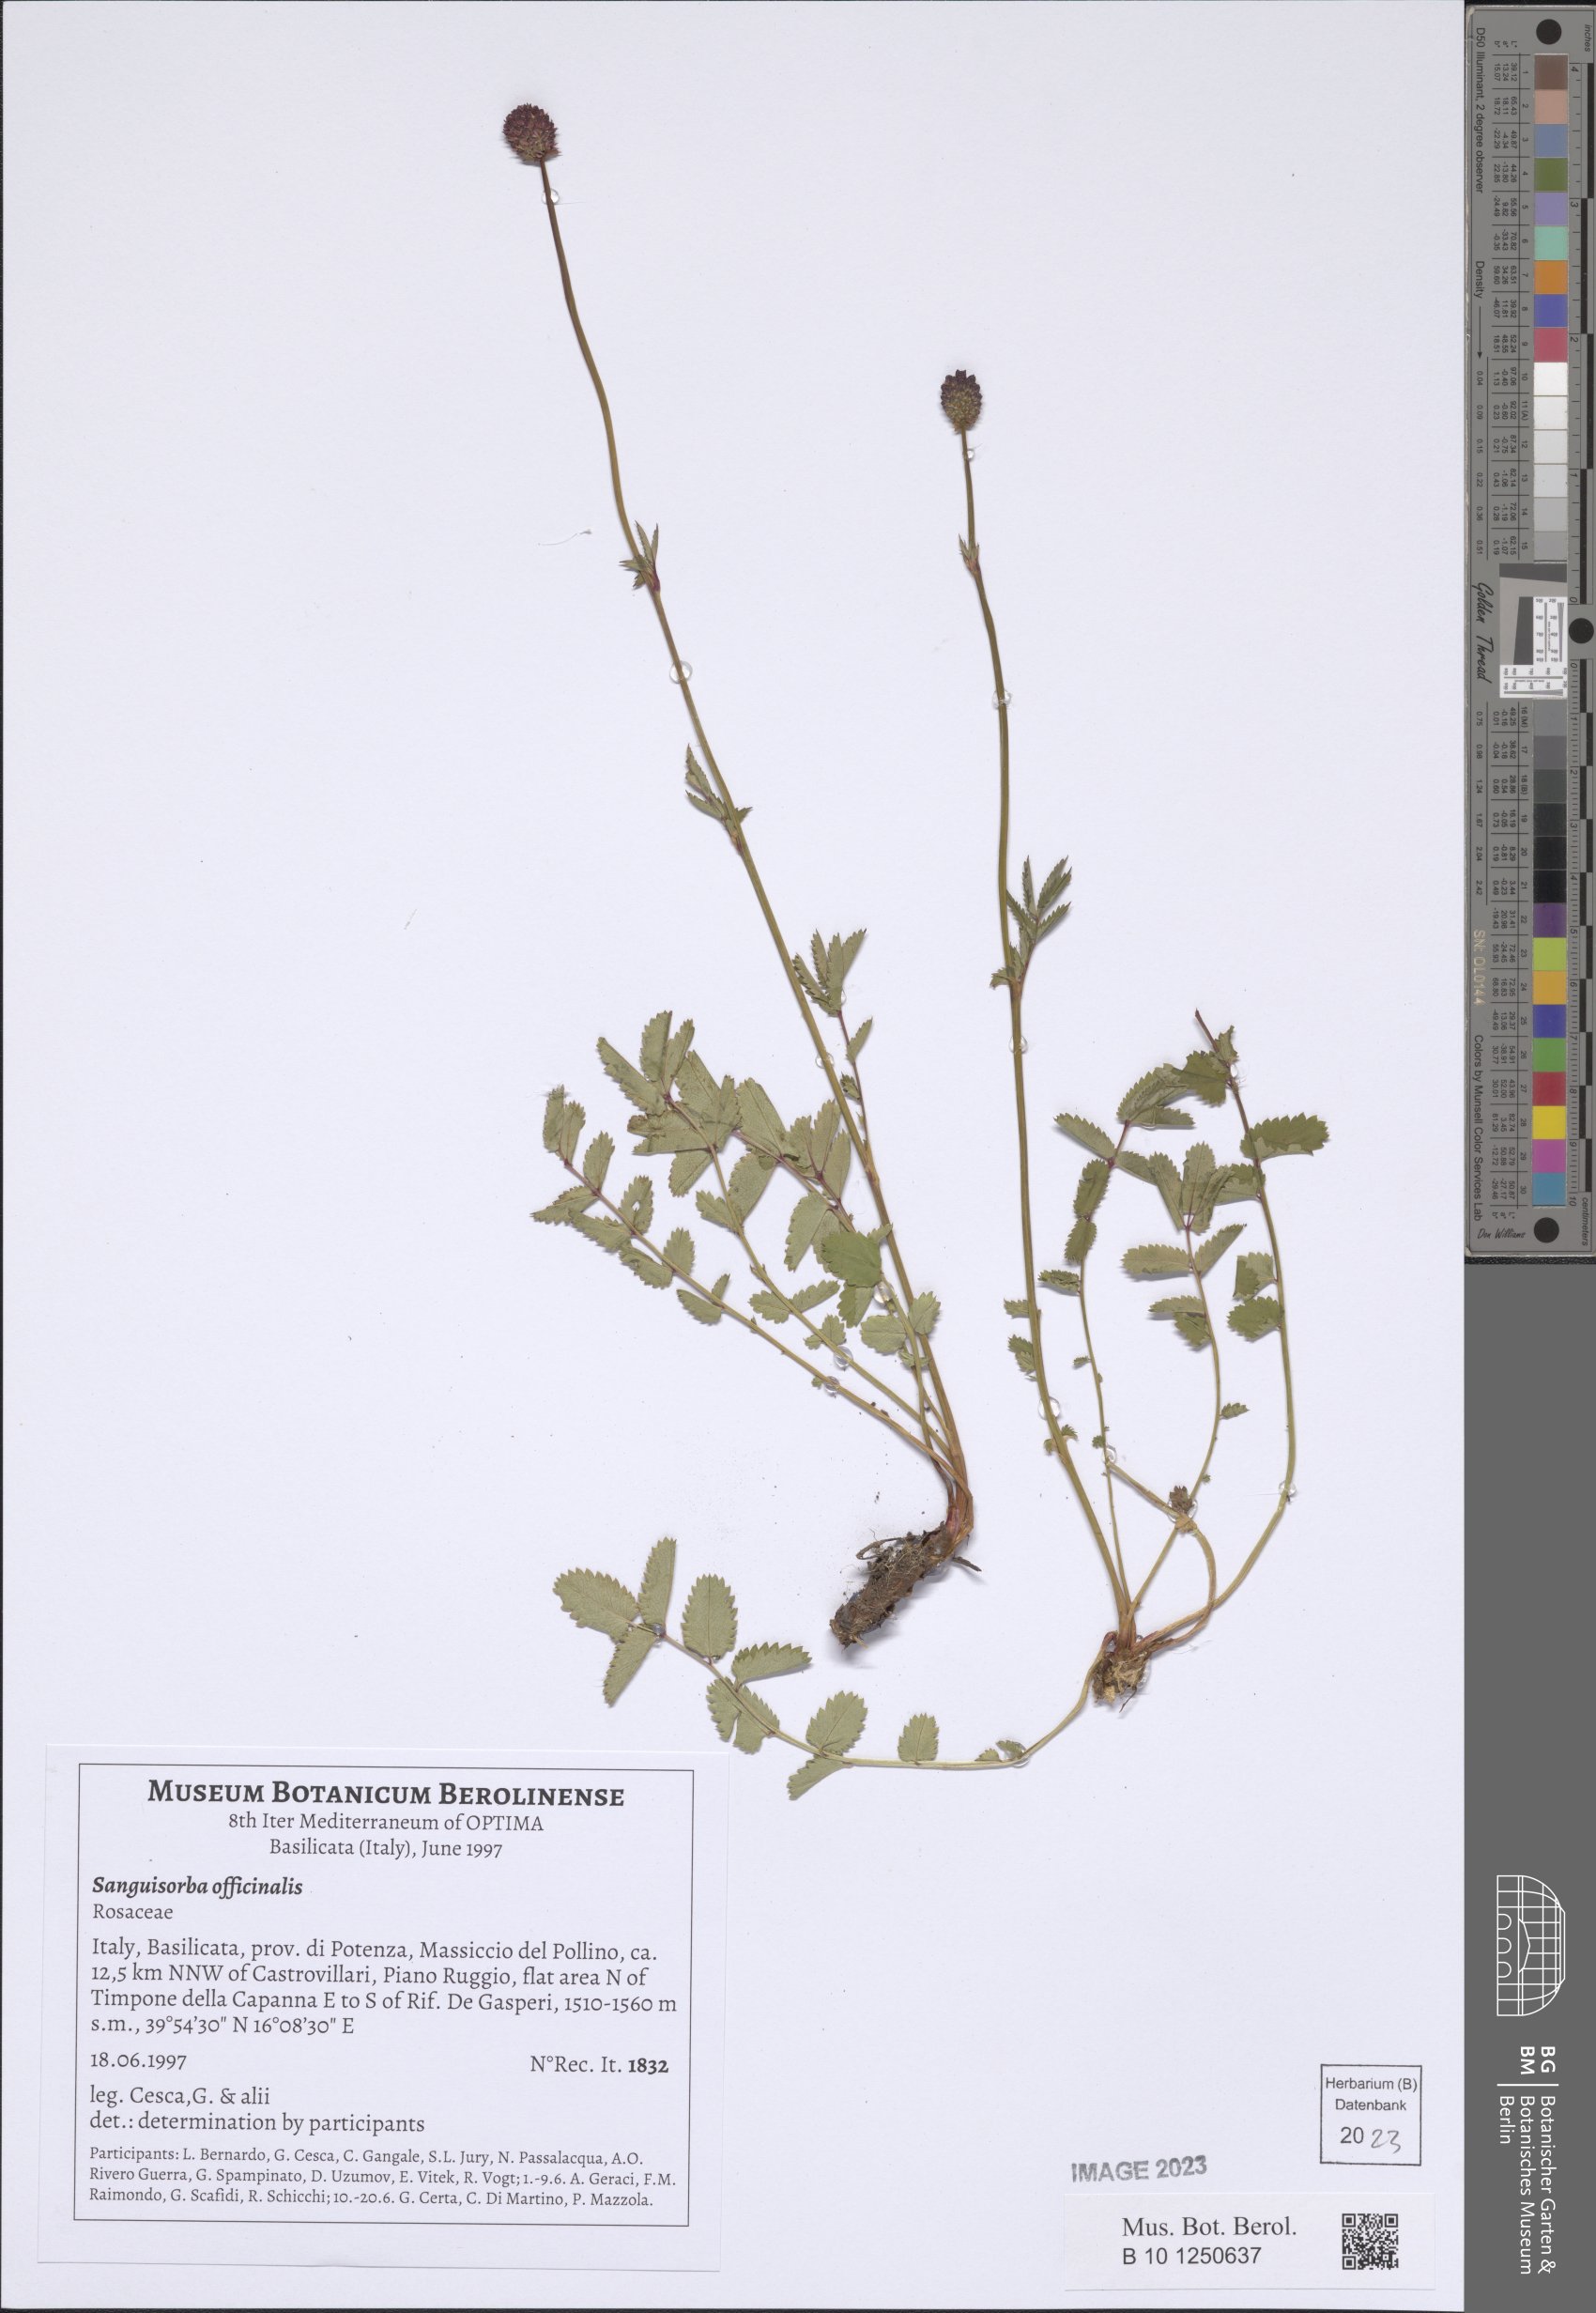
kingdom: Plantae
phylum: Tracheophyta
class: Magnoliopsida
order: Rosales
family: Rosaceae
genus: Sanguisorba
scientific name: Sanguisorba officinalis
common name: Great burnet
